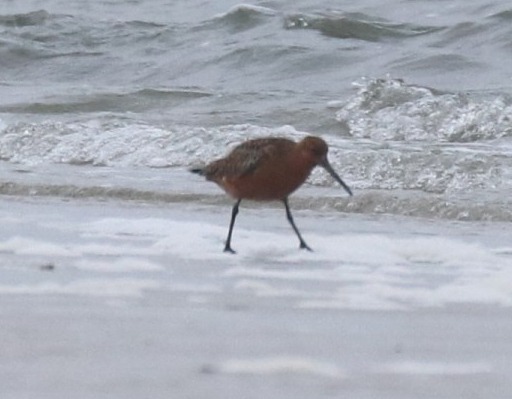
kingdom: Animalia
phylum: Chordata
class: Aves
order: Charadriiformes
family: Scolopacidae
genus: Limosa
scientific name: Limosa lapponica
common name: Lille kobbersneppe
